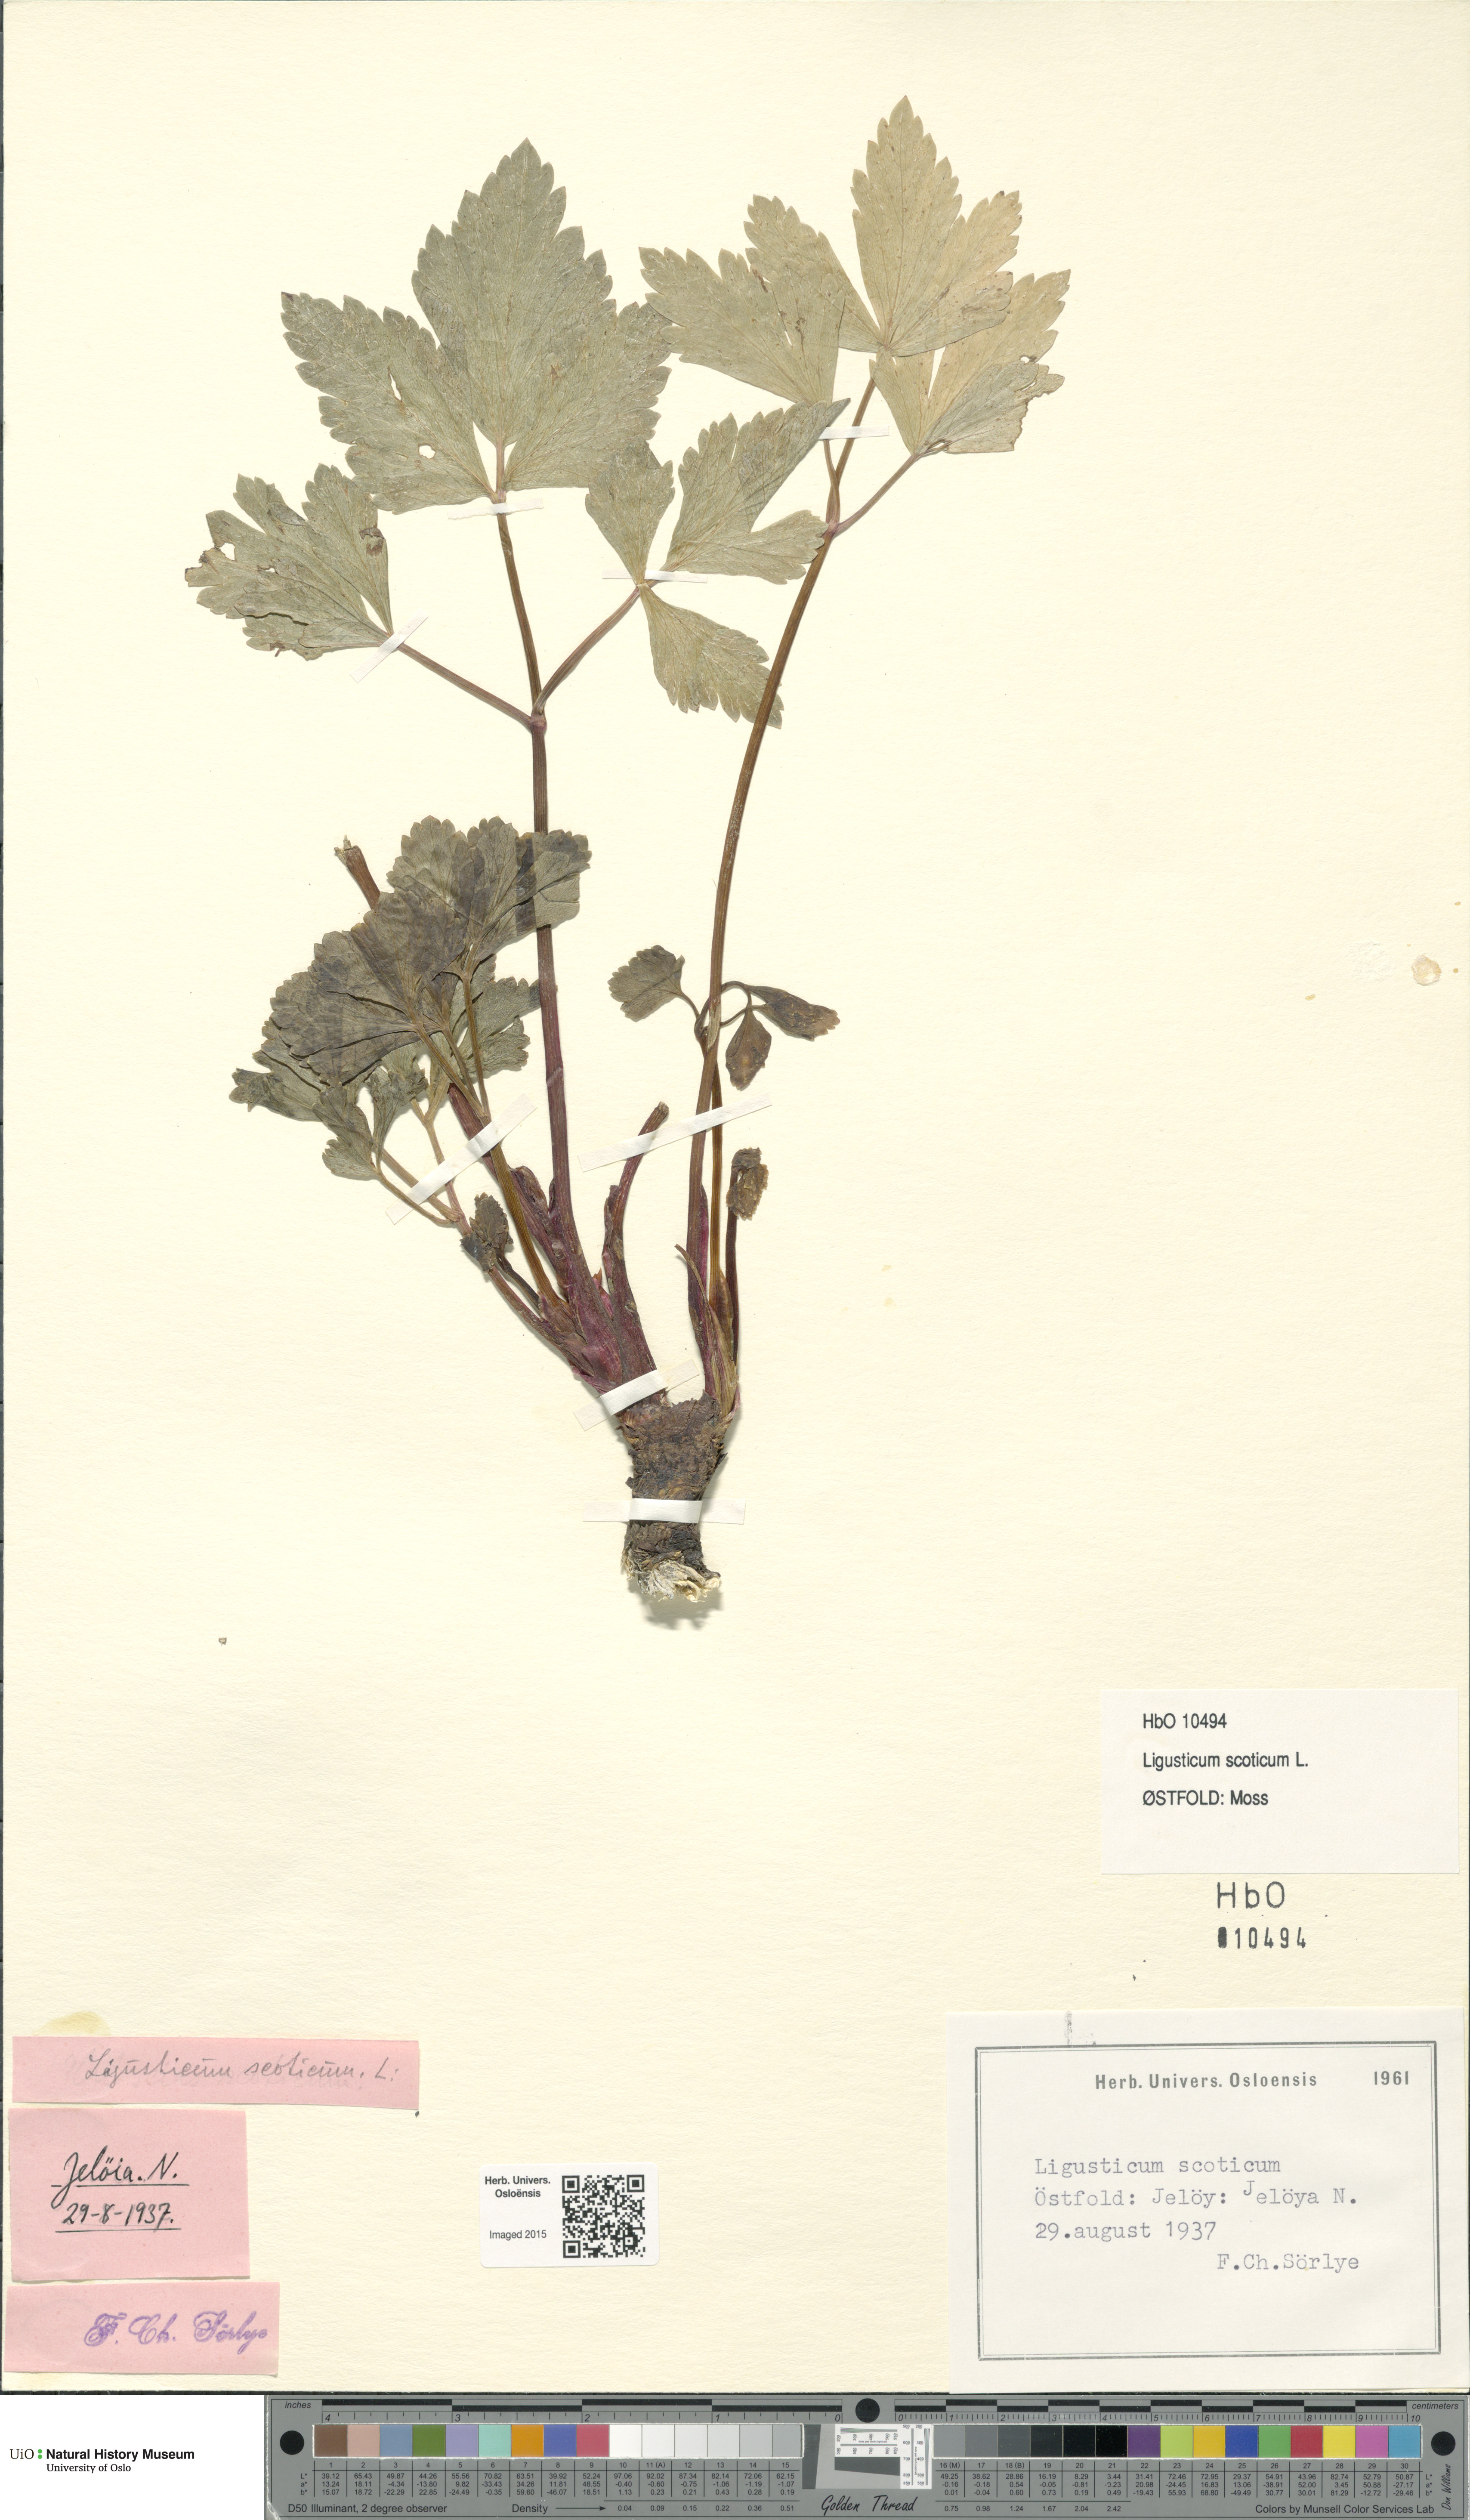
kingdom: Plantae
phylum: Tracheophyta
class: Magnoliopsida
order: Apiales
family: Apiaceae
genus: Ligusticum
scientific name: Ligusticum scothicum
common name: Beach lovage
